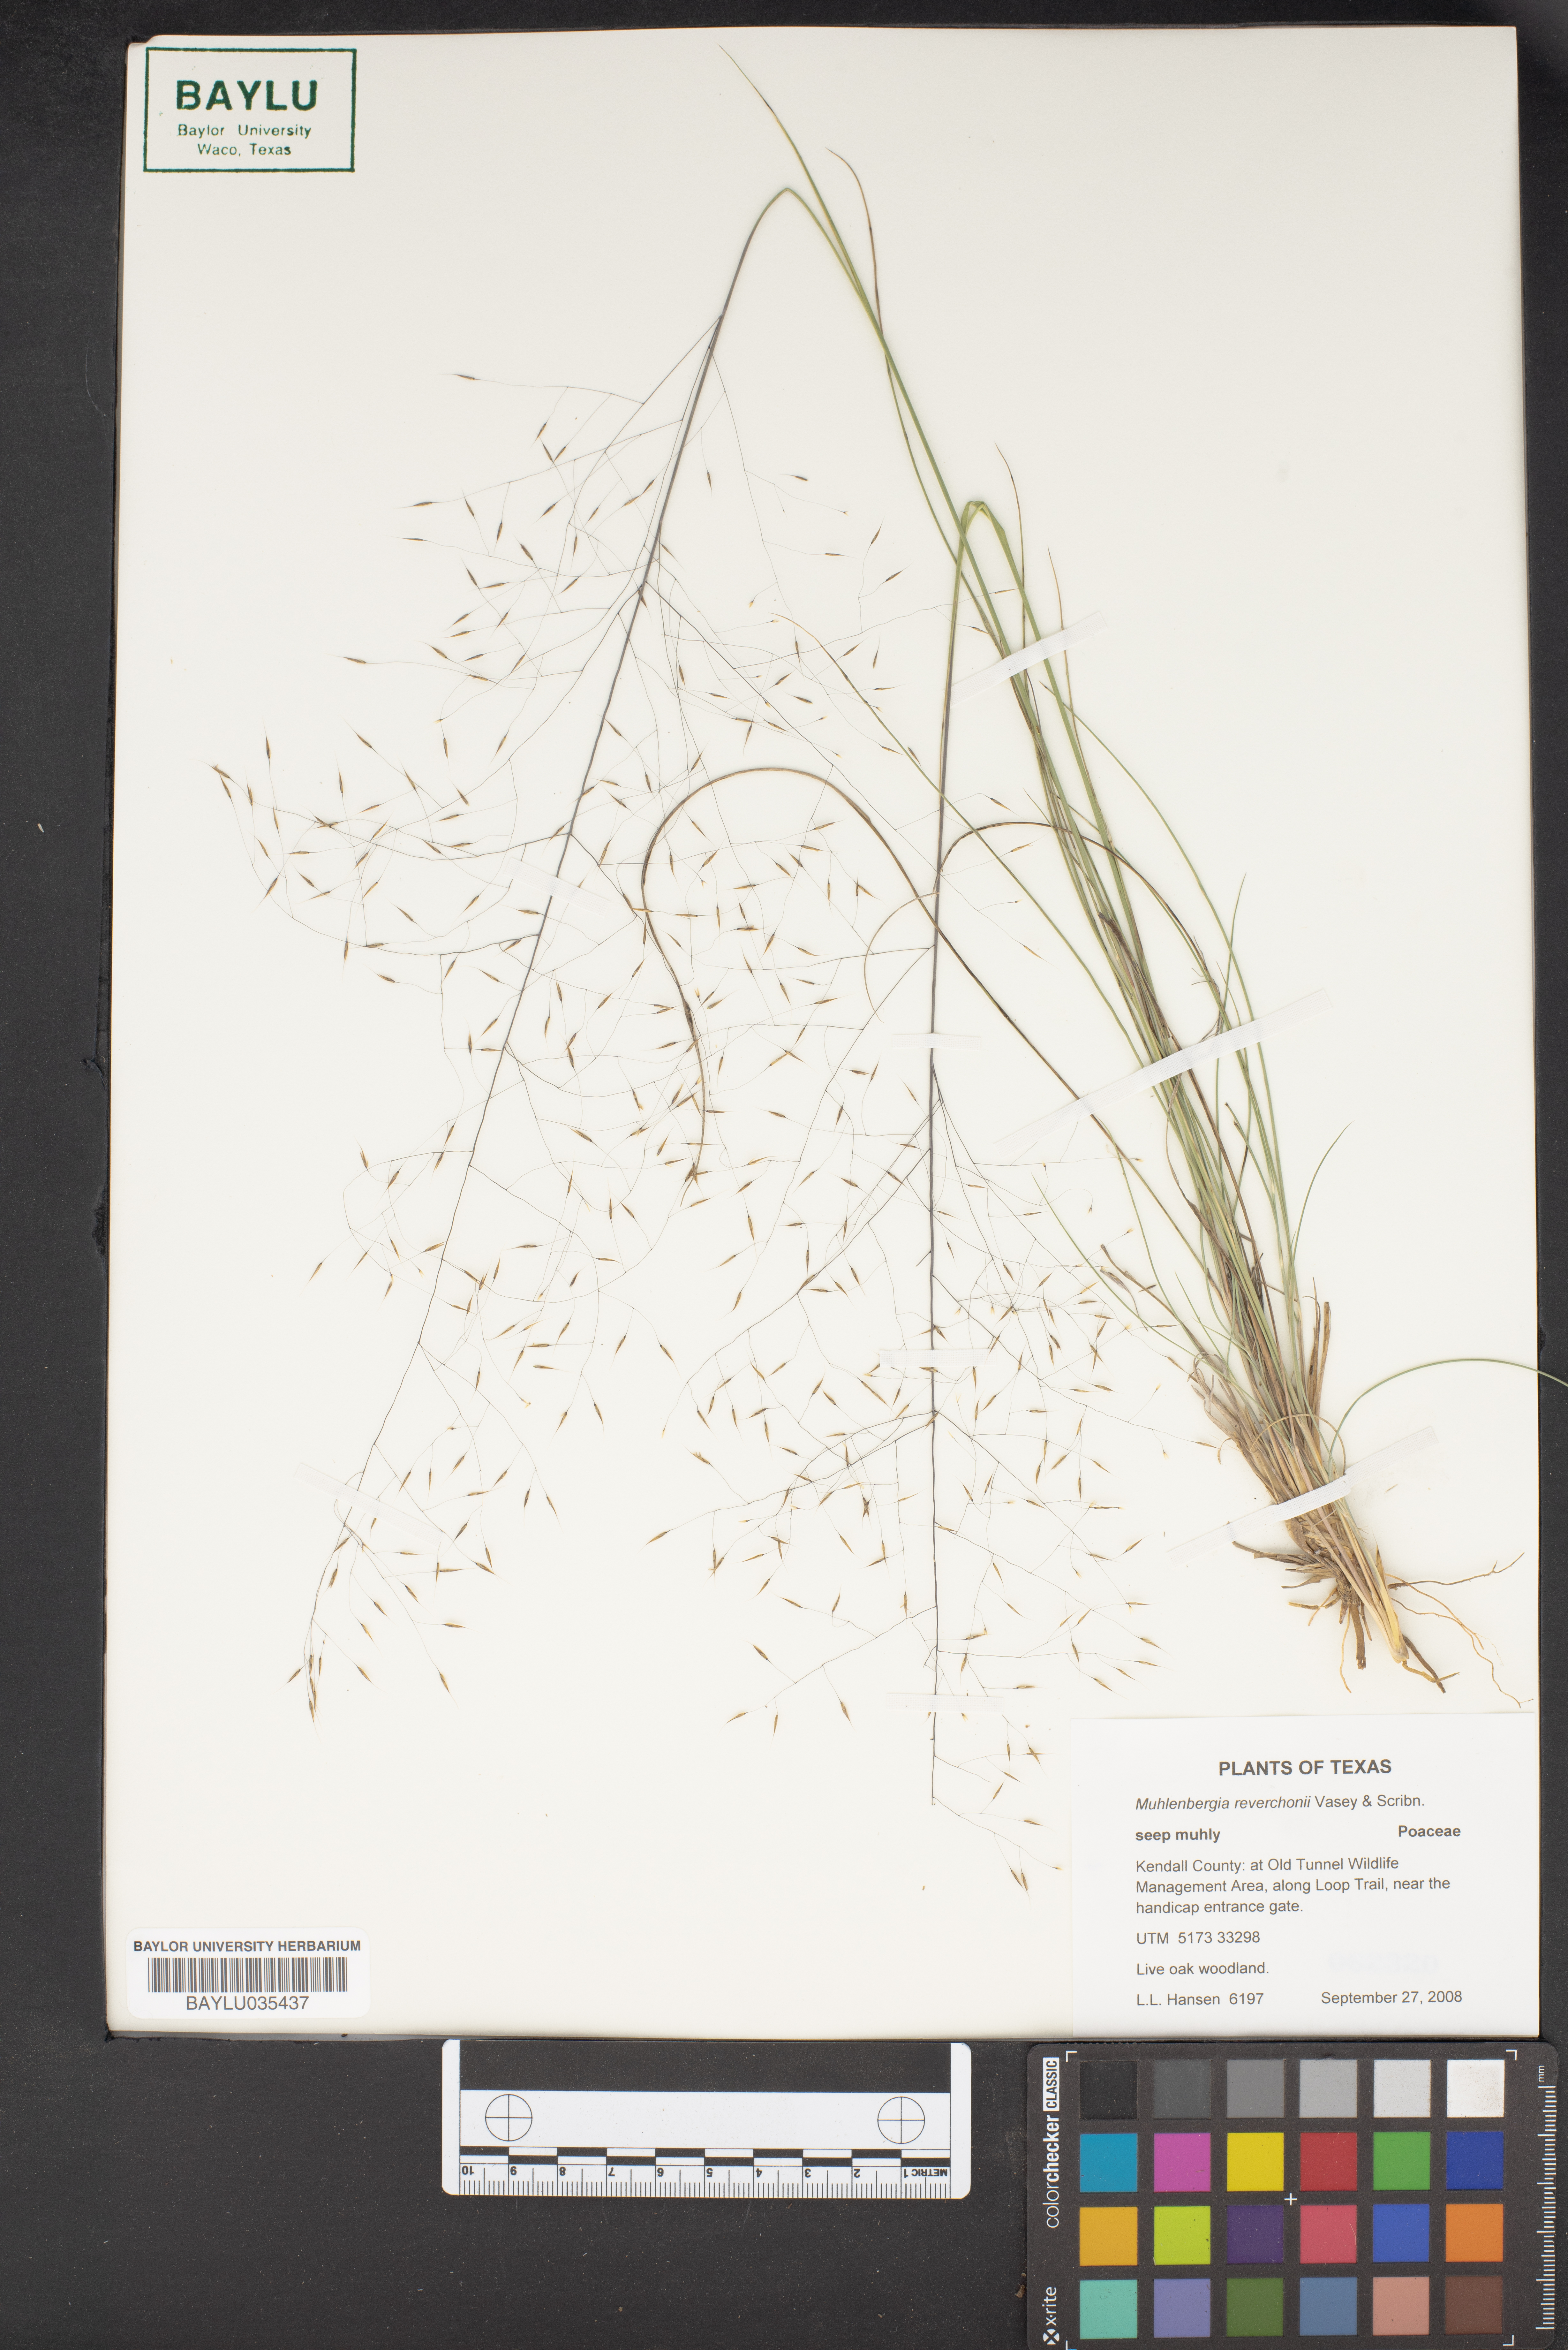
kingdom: Plantae
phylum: Tracheophyta
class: Liliopsida
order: Poales
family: Poaceae
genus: Muhlenbergia
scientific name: Muhlenbergia reverchonii
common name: Seep muhly
